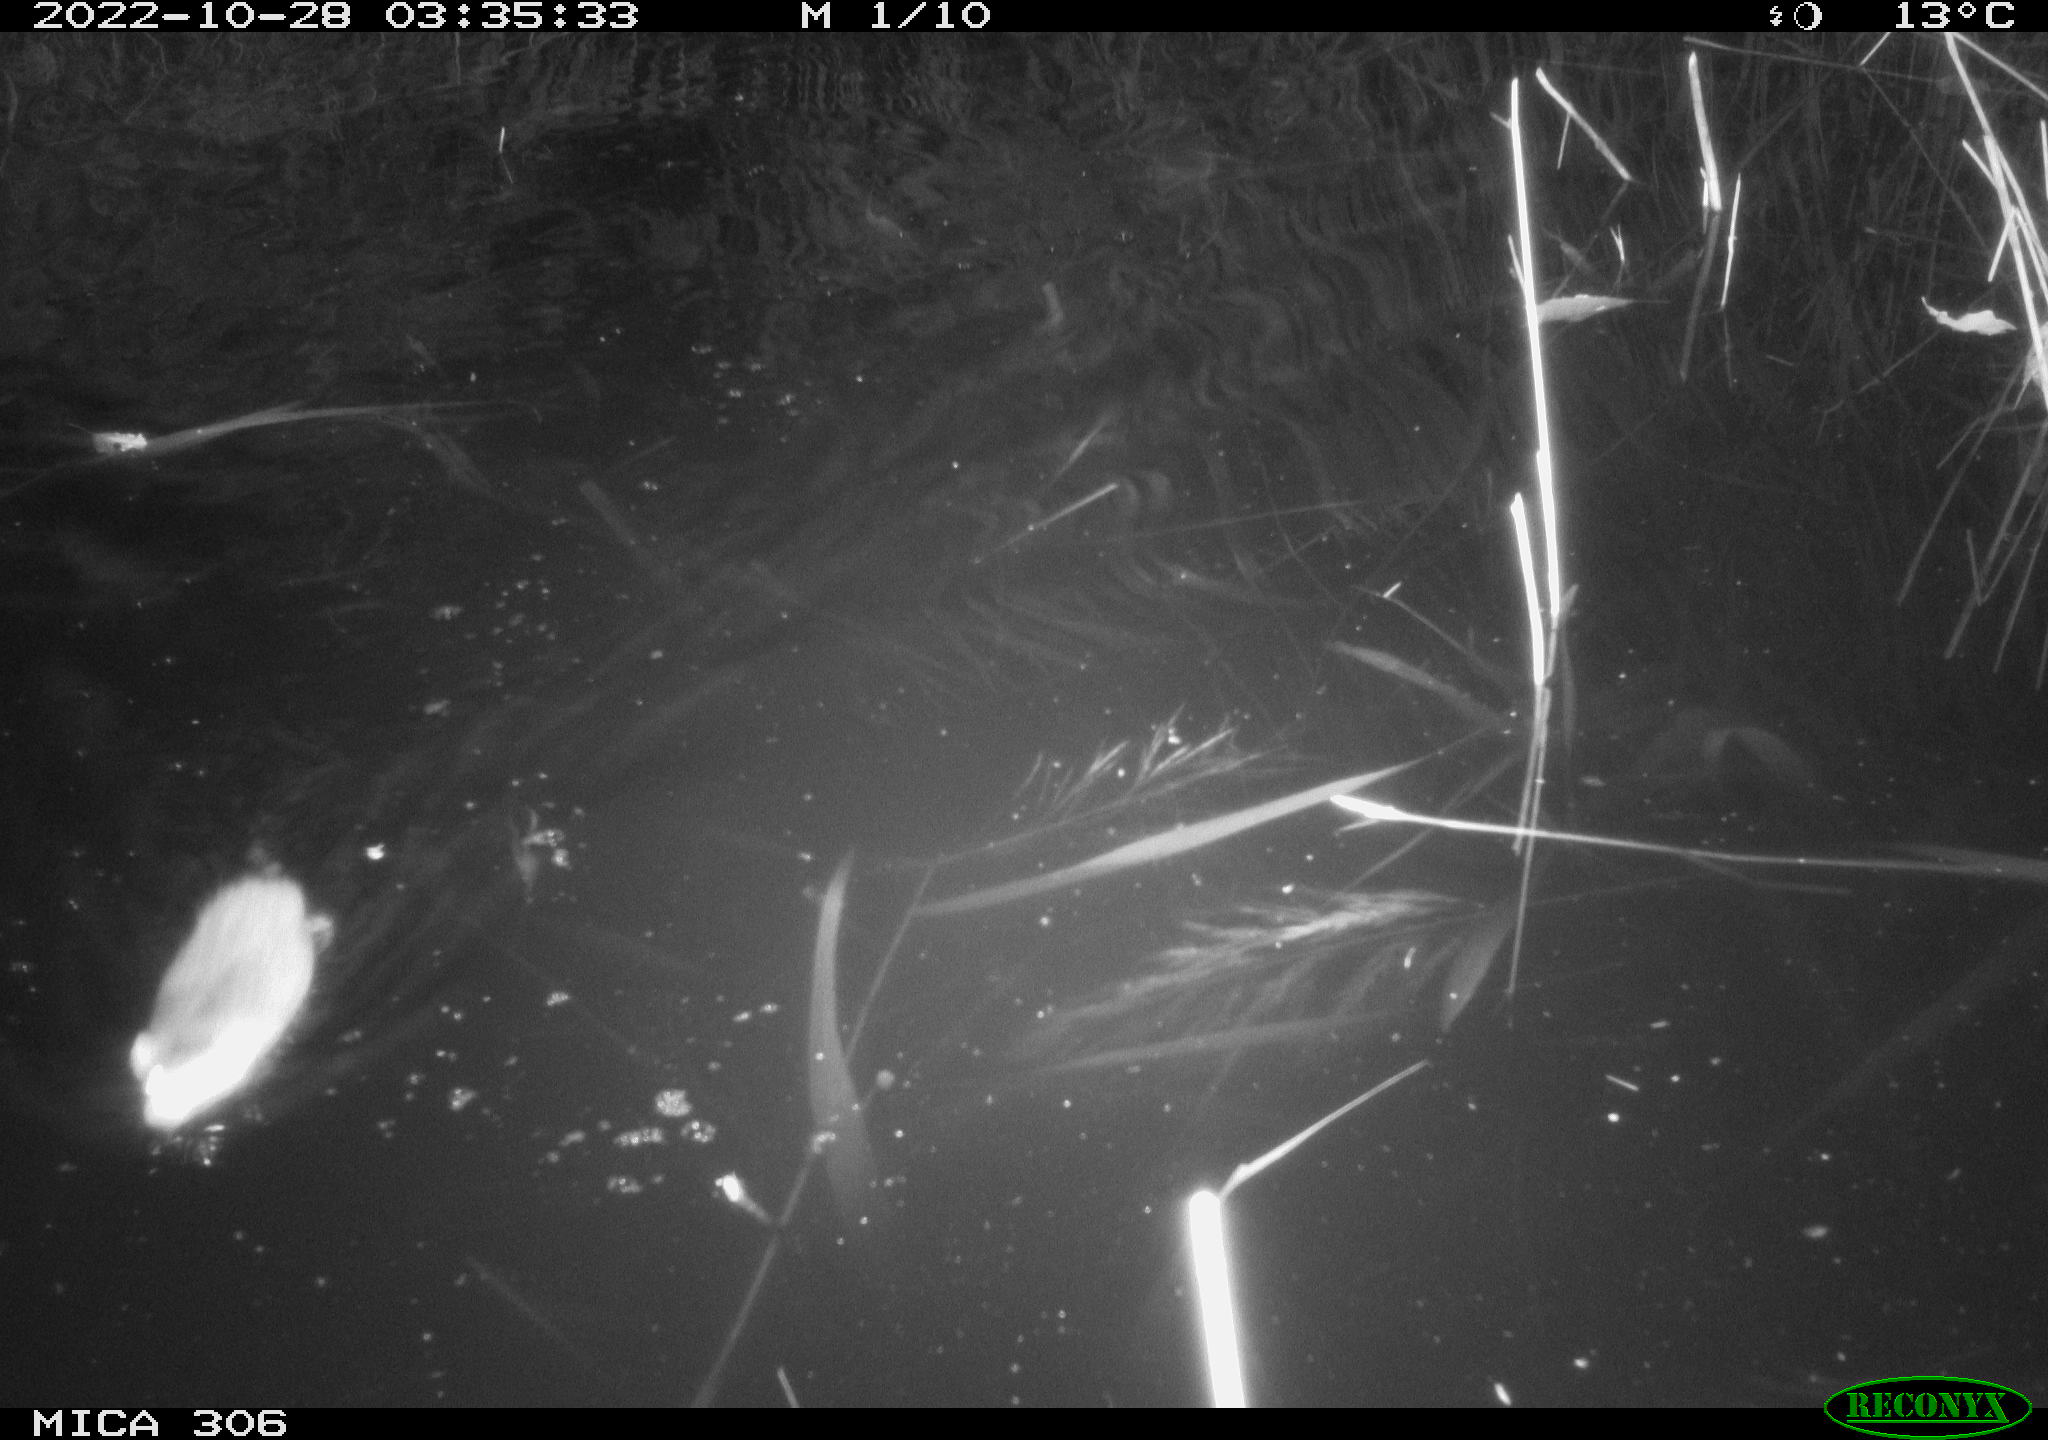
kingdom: Animalia
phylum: Chordata
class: Mammalia
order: Rodentia
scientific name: Rodentia
